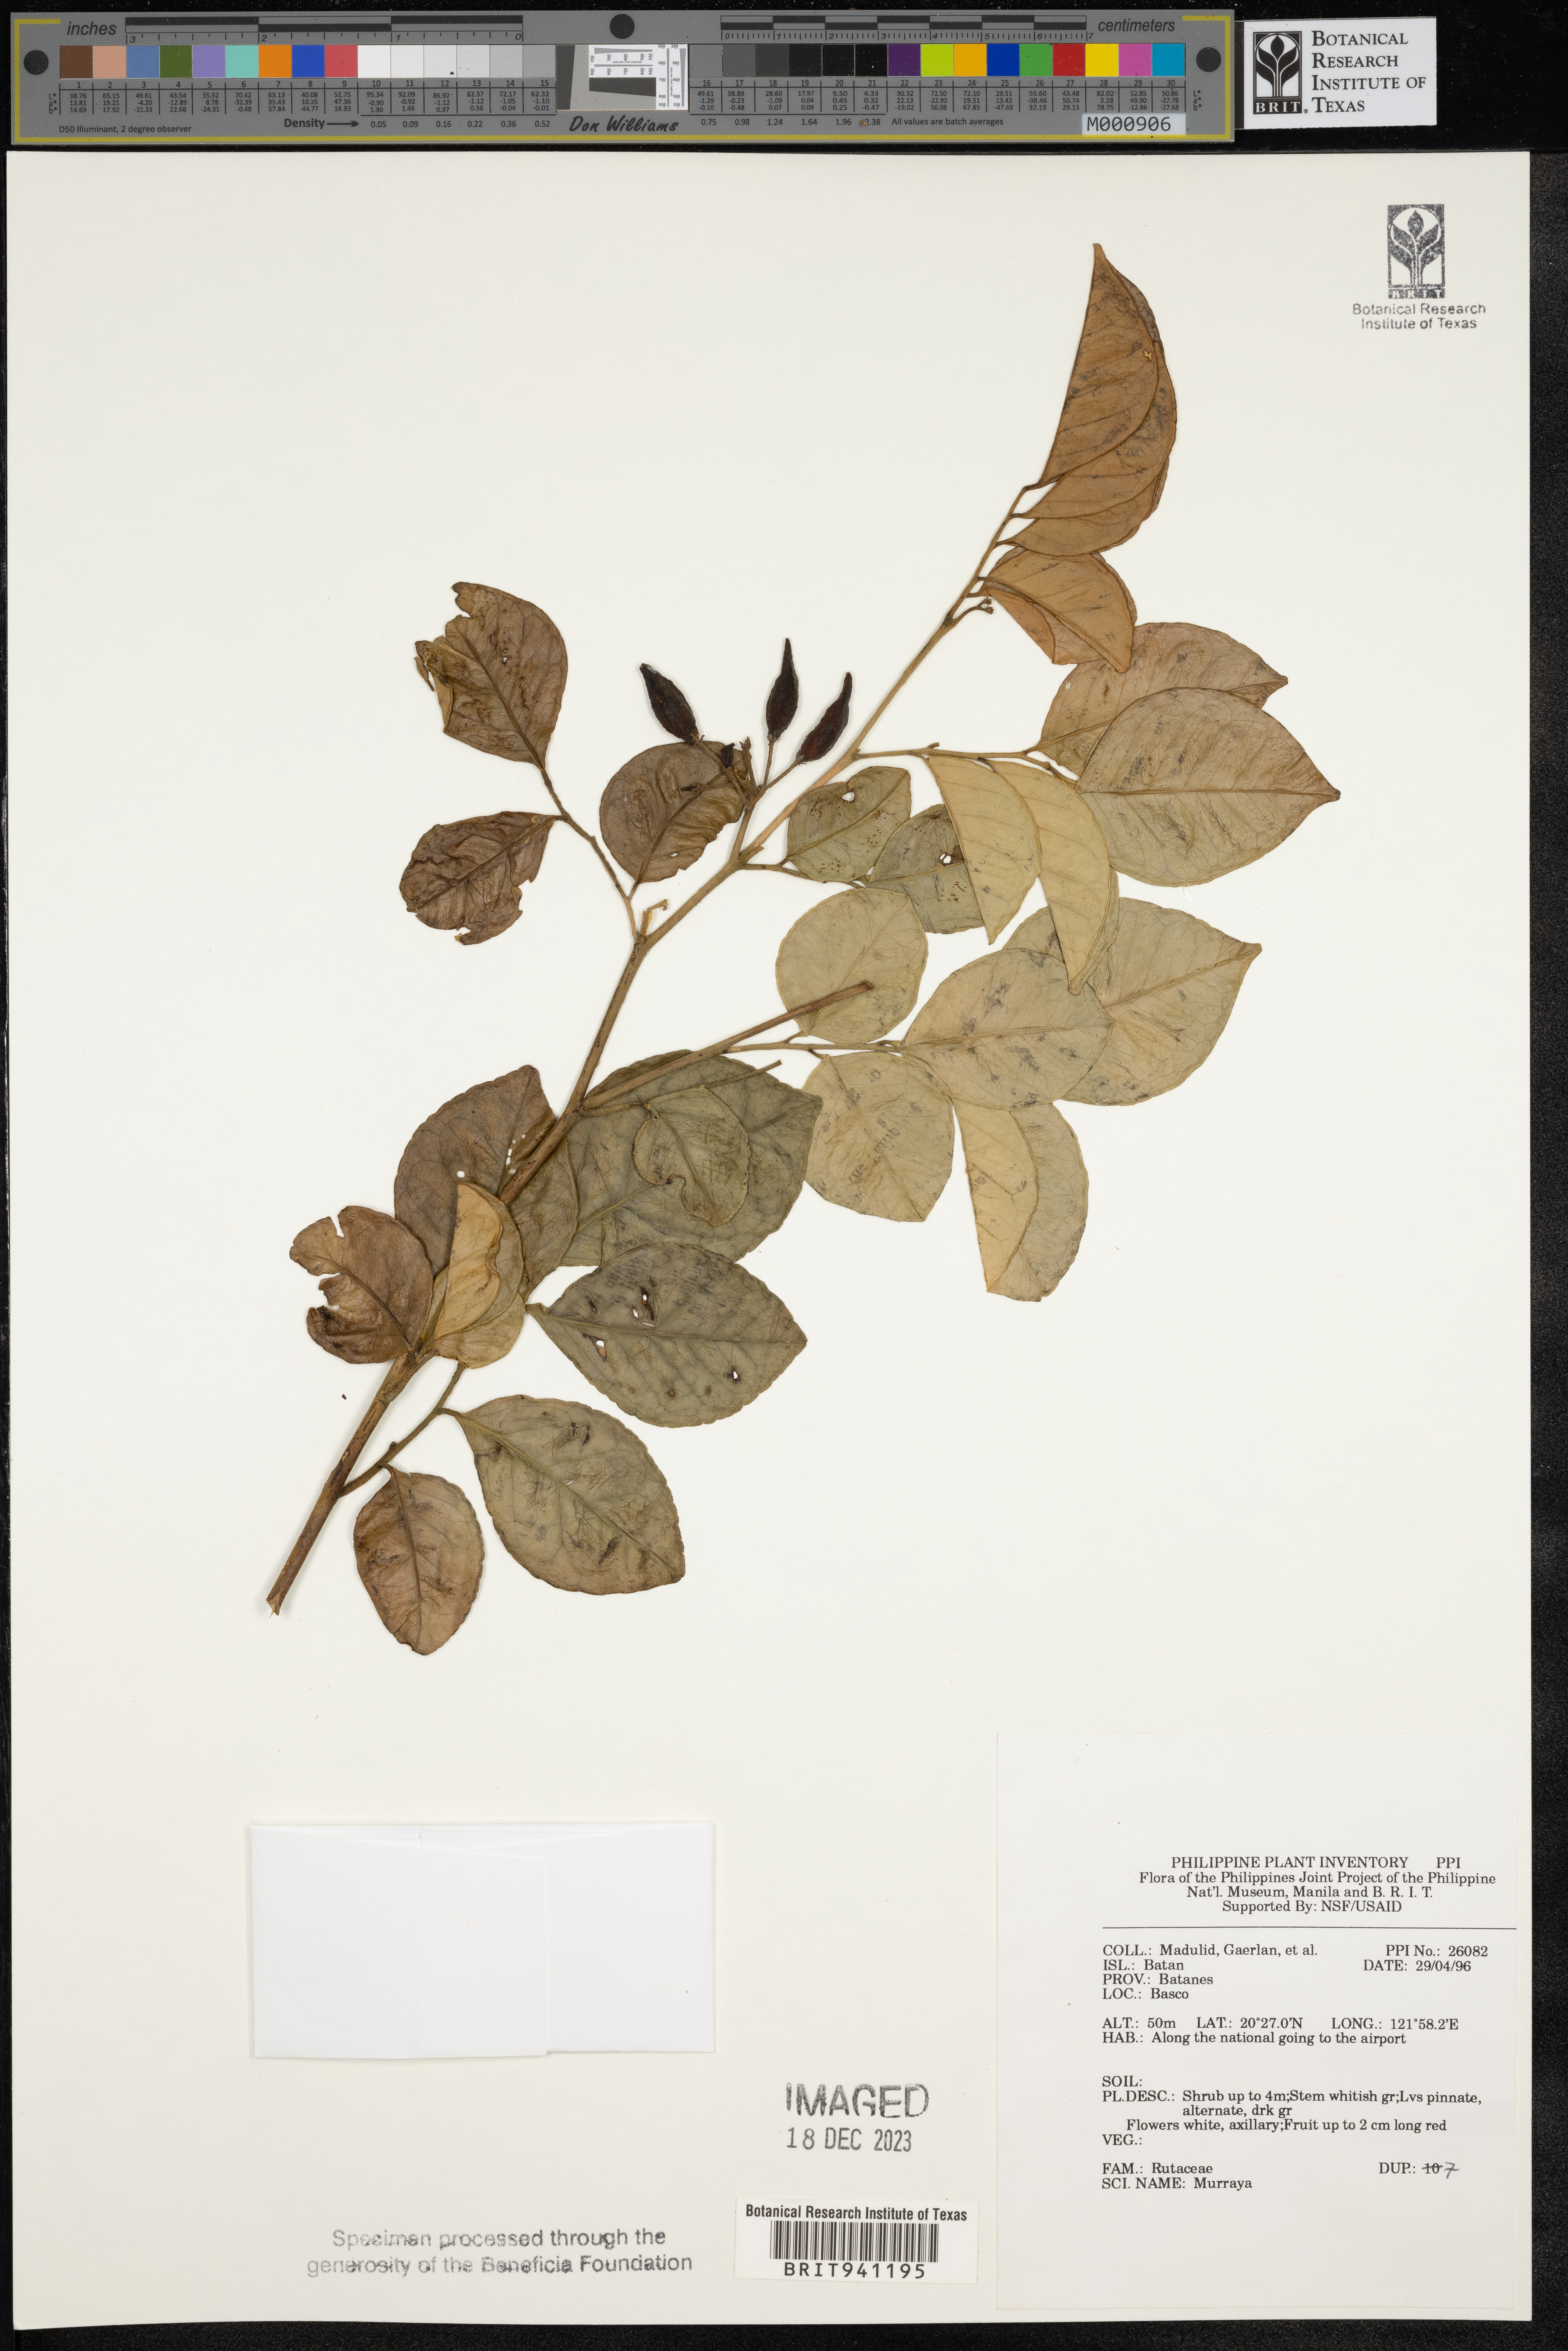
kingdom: Plantae
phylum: Tracheophyta
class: Magnoliopsida
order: Sapindales
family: Rutaceae
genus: Murraya
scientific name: Murraya
